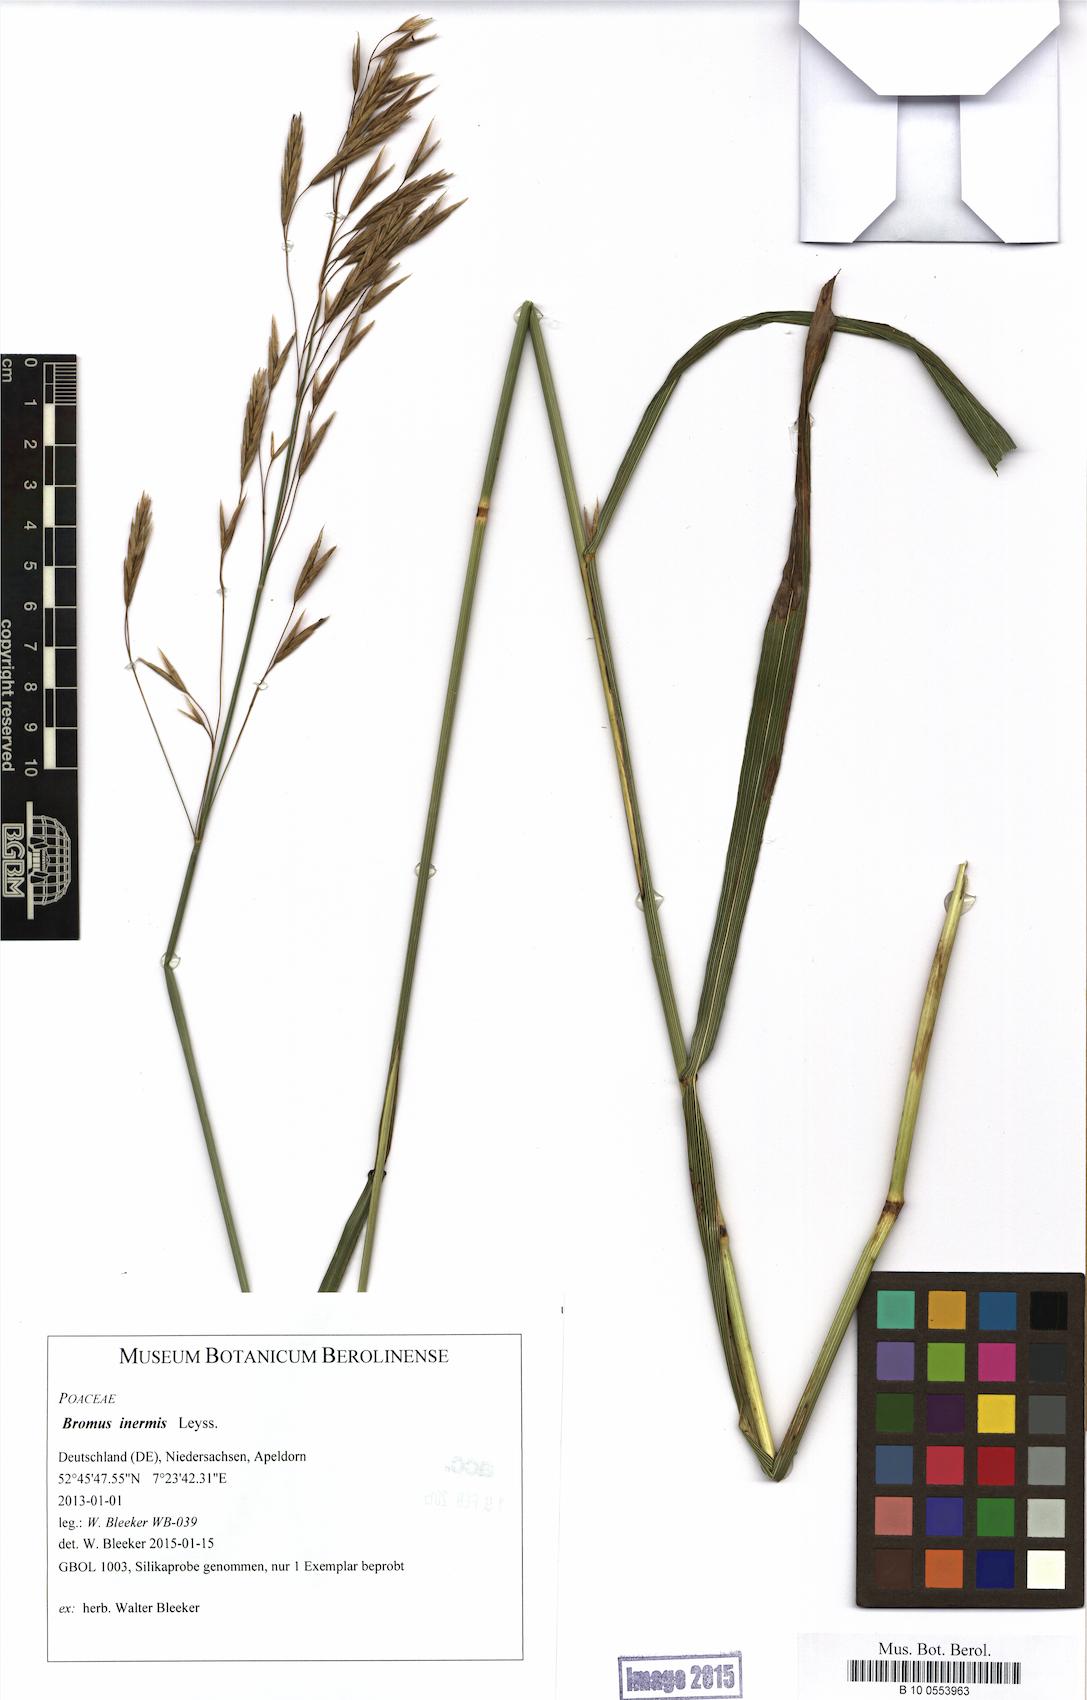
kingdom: Plantae
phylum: Tracheophyta
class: Liliopsida
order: Poales
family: Poaceae
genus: Bromus
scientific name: Bromus inermis
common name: Smooth brome
